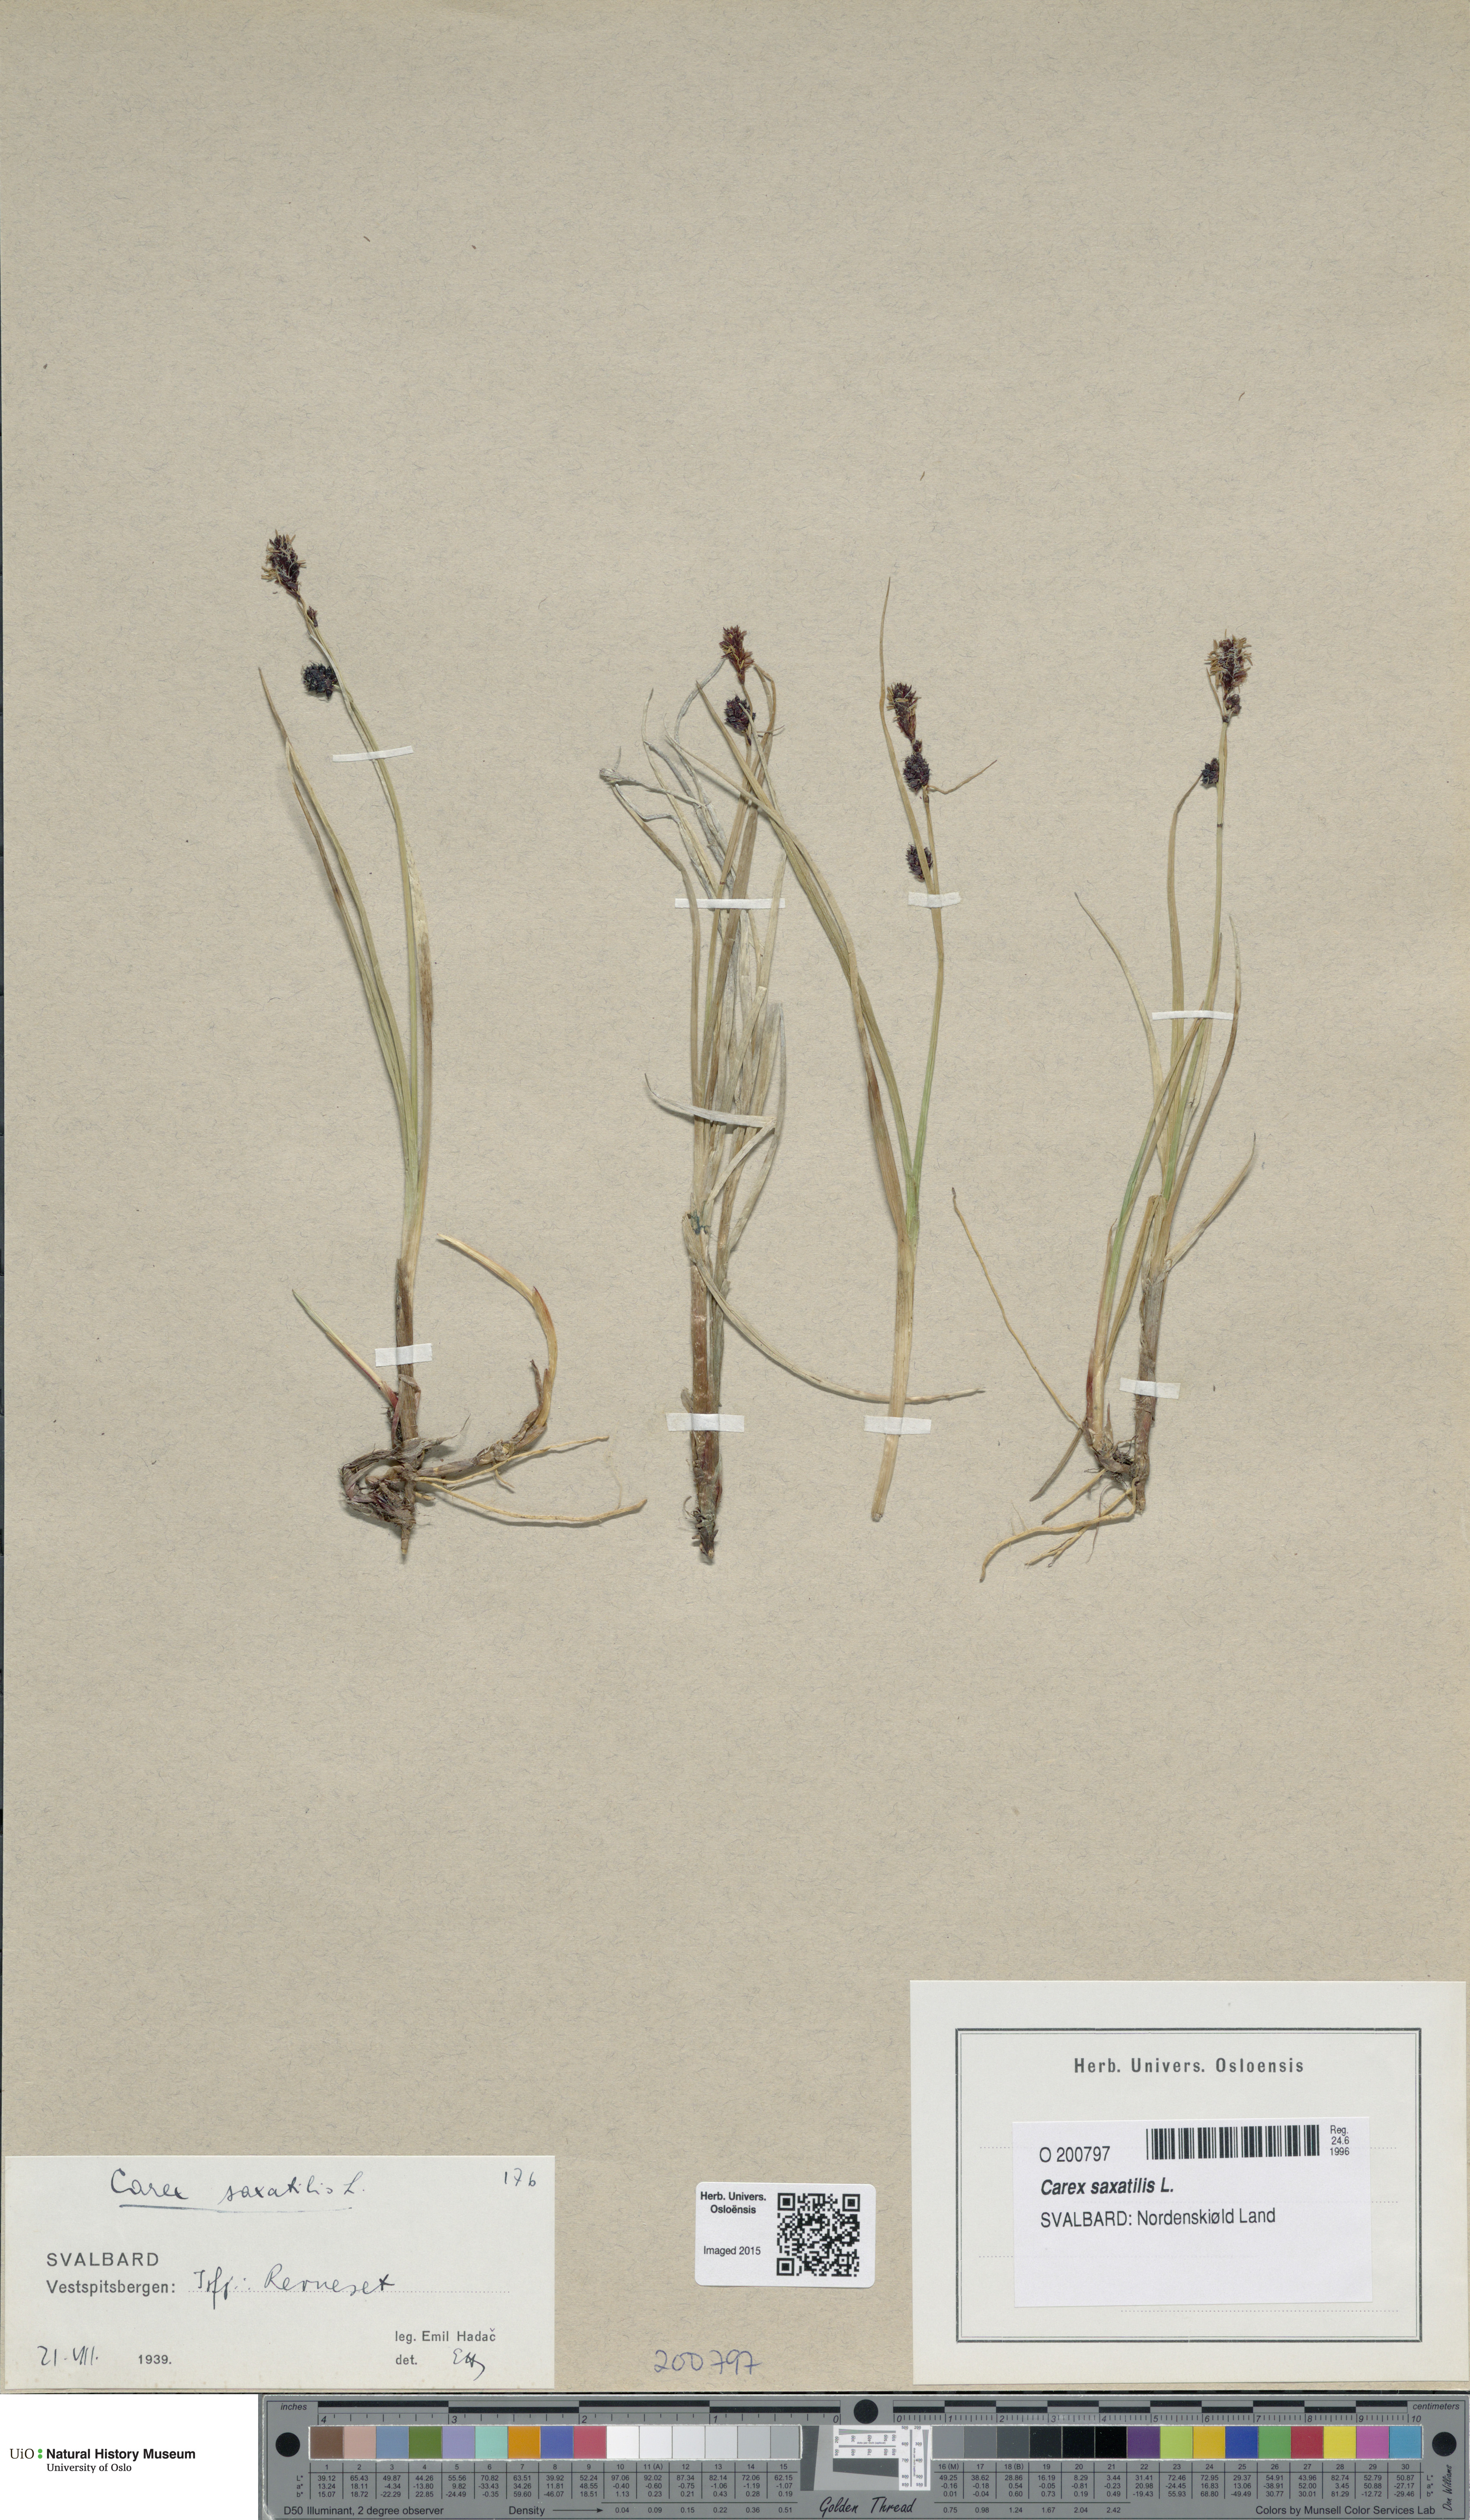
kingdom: Plantae
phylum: Tracheophyta
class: Liliopsida
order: Poales
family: Cyperaceae
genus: Carex
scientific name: Carex saxatilis
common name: Russet sedge
